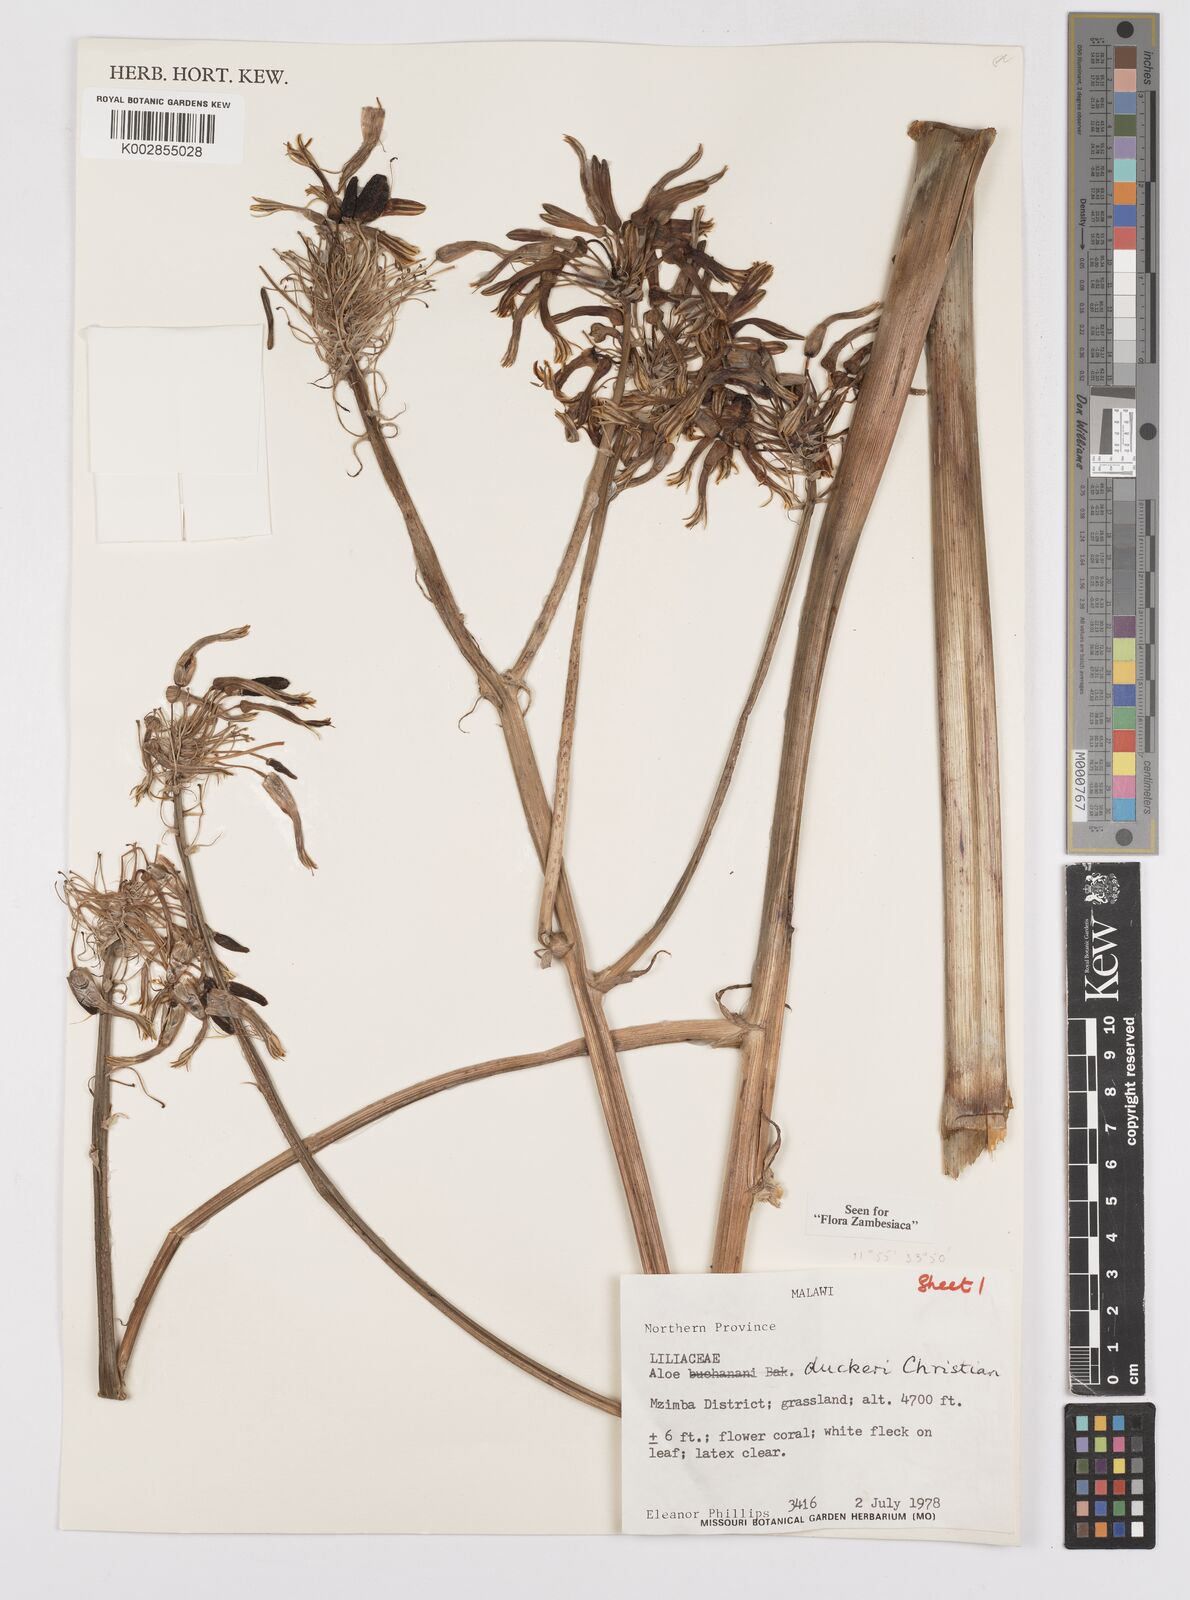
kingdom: Plantae
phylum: Tracheophyta
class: Liliopsida
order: Asparagales
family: Asphodelaceae
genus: Aloe
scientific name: Aloe duckeri
